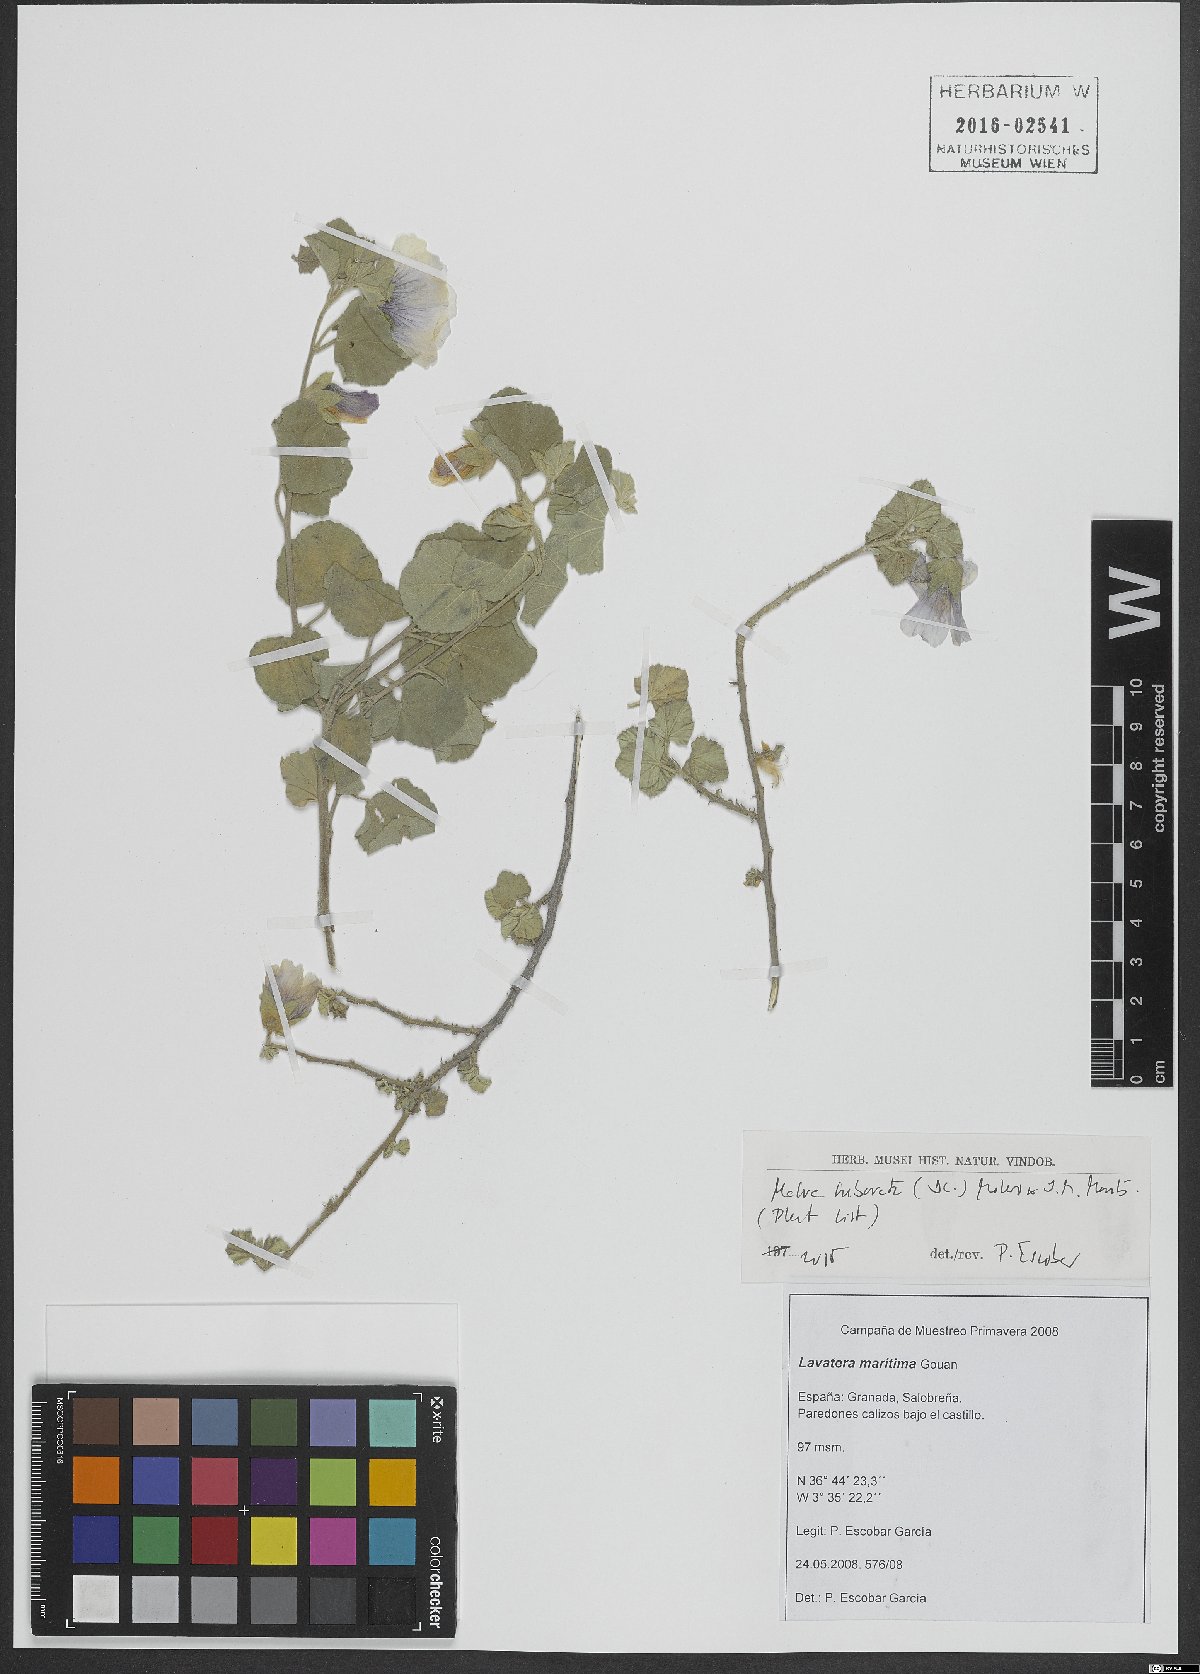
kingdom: Plantae
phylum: Tracheophyta
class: Magnoliopsida
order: Malvales
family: Malvaceae
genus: Malva
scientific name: Malva subovata
